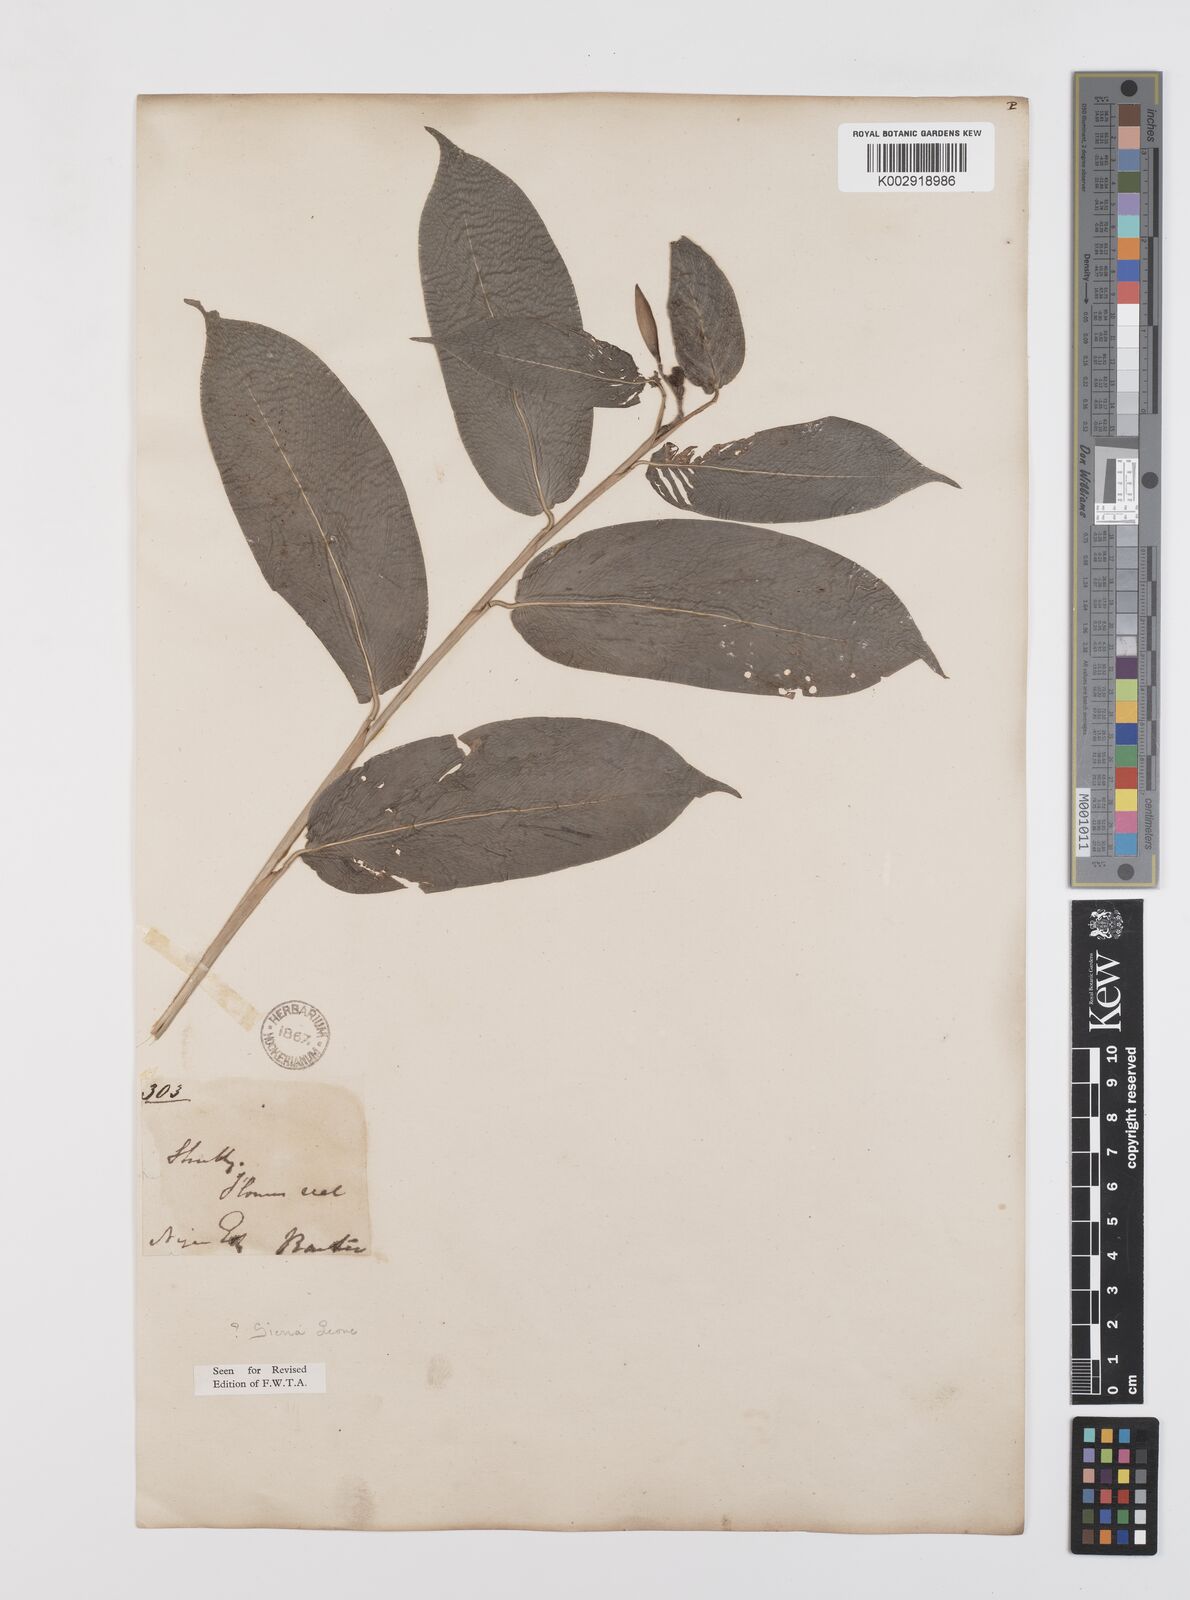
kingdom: Plantae
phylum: Tracheophyta
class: Liliopsida
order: Zingiberales
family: Marantaceae
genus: Trachyphrynium
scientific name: Trachyphrynium braunianum
